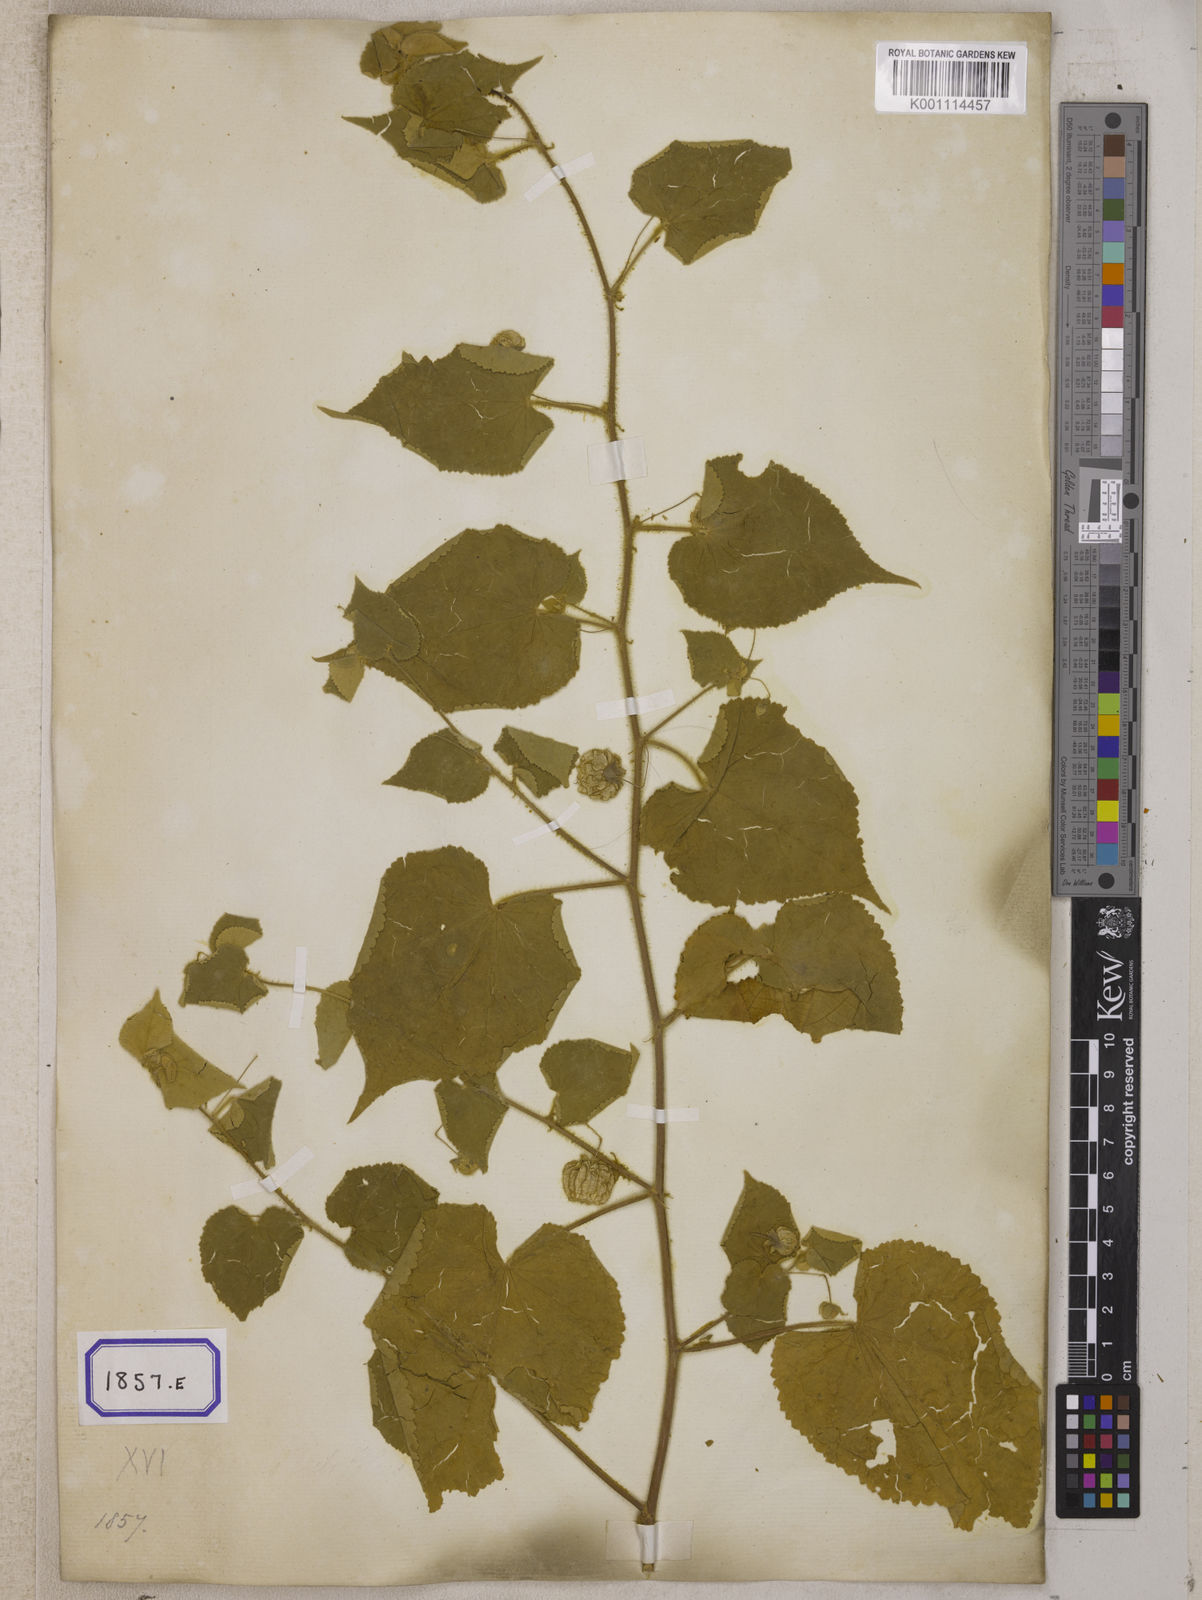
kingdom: Plantae
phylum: Tracheophyta
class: Magnoliopsida
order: Malvales
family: Malvaceae
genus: Herissantia
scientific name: Herissantia crispa
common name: Bladdermallow
